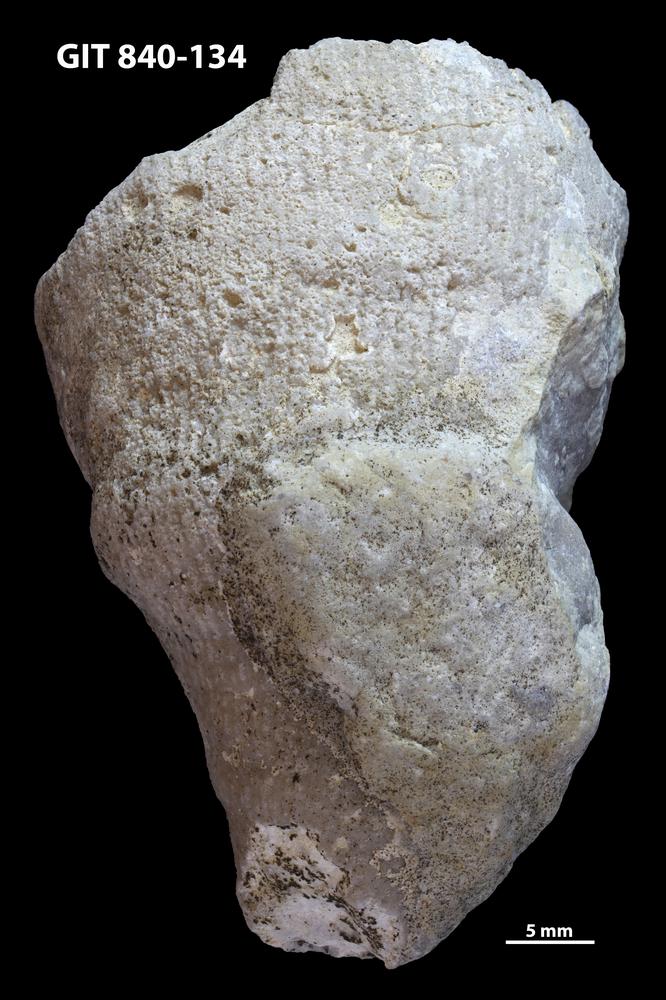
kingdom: Animalia
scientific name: Animalia
